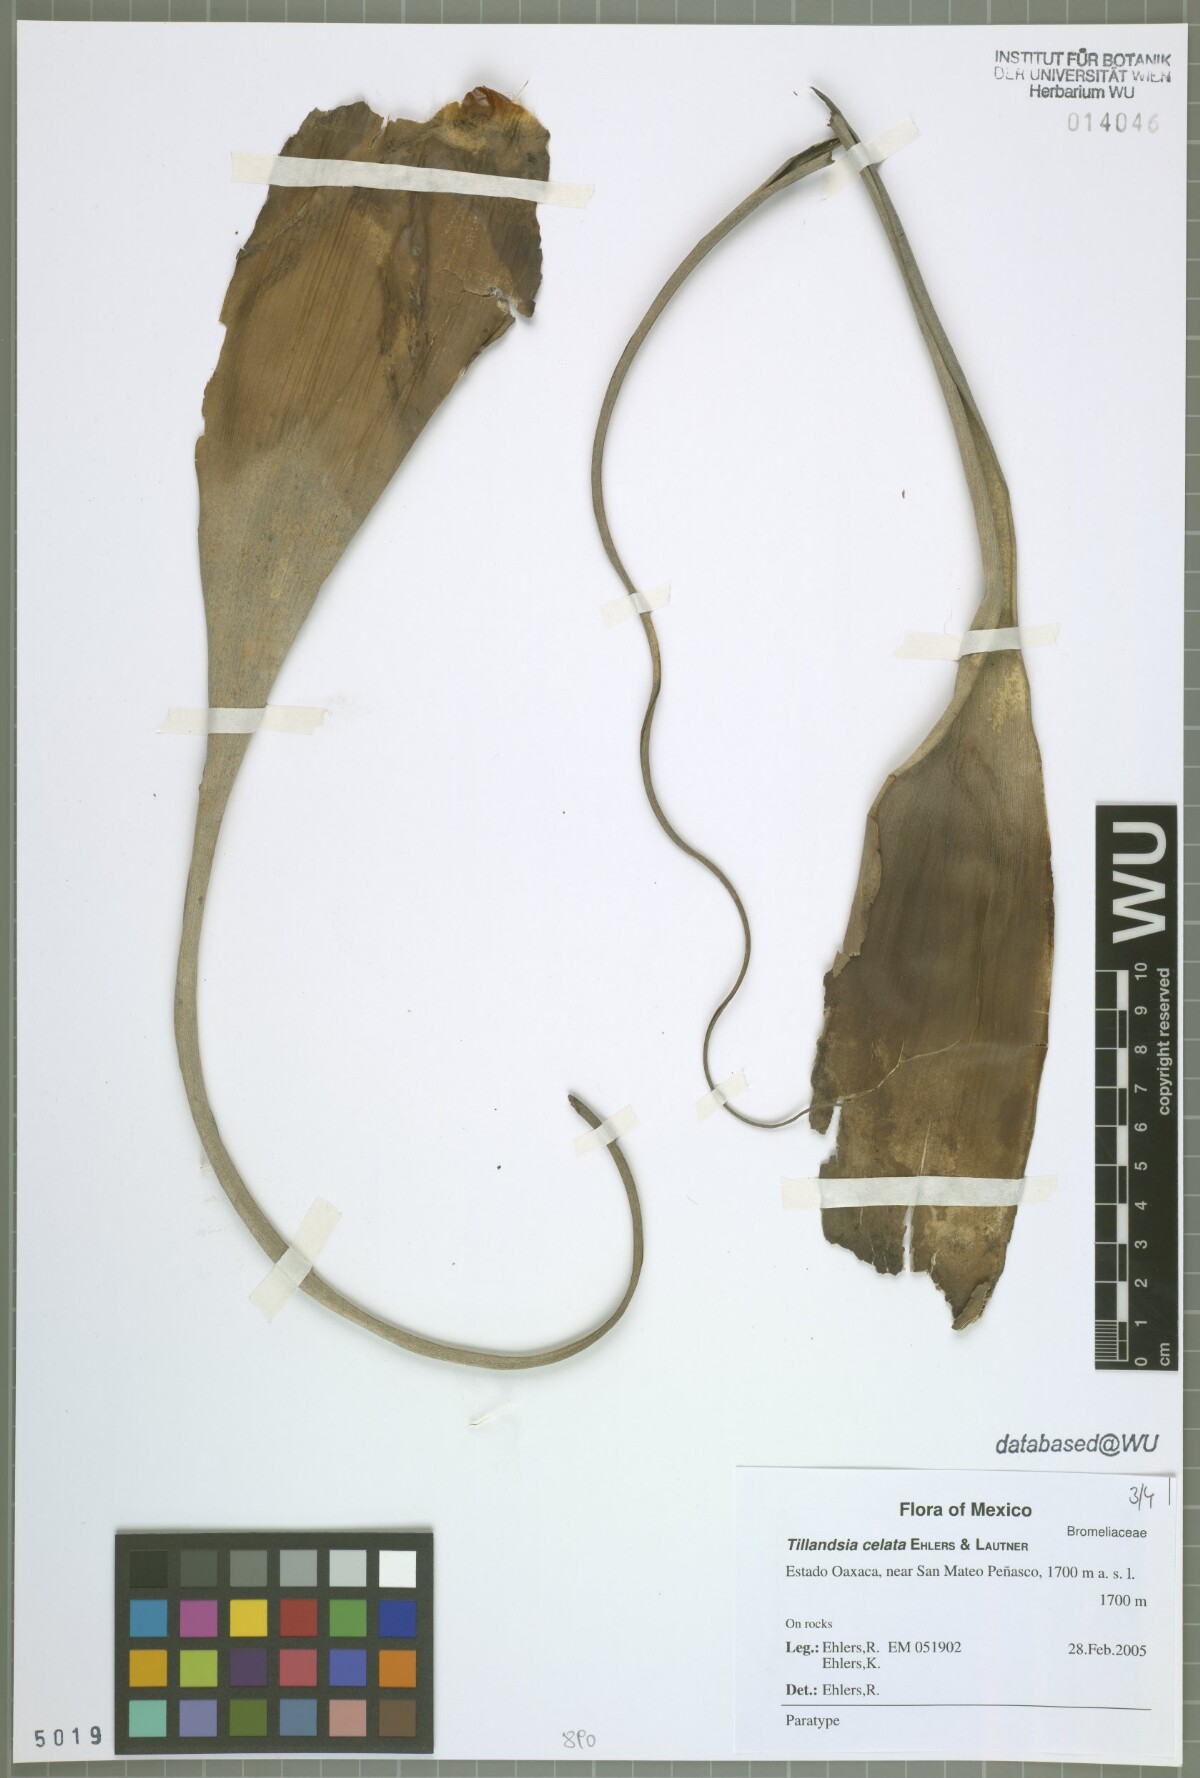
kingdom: Plantae
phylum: Tracheophyta
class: Liliopsida
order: Poales
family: Bromeliaceae
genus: Tillandsia
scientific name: Tillandsia celata
